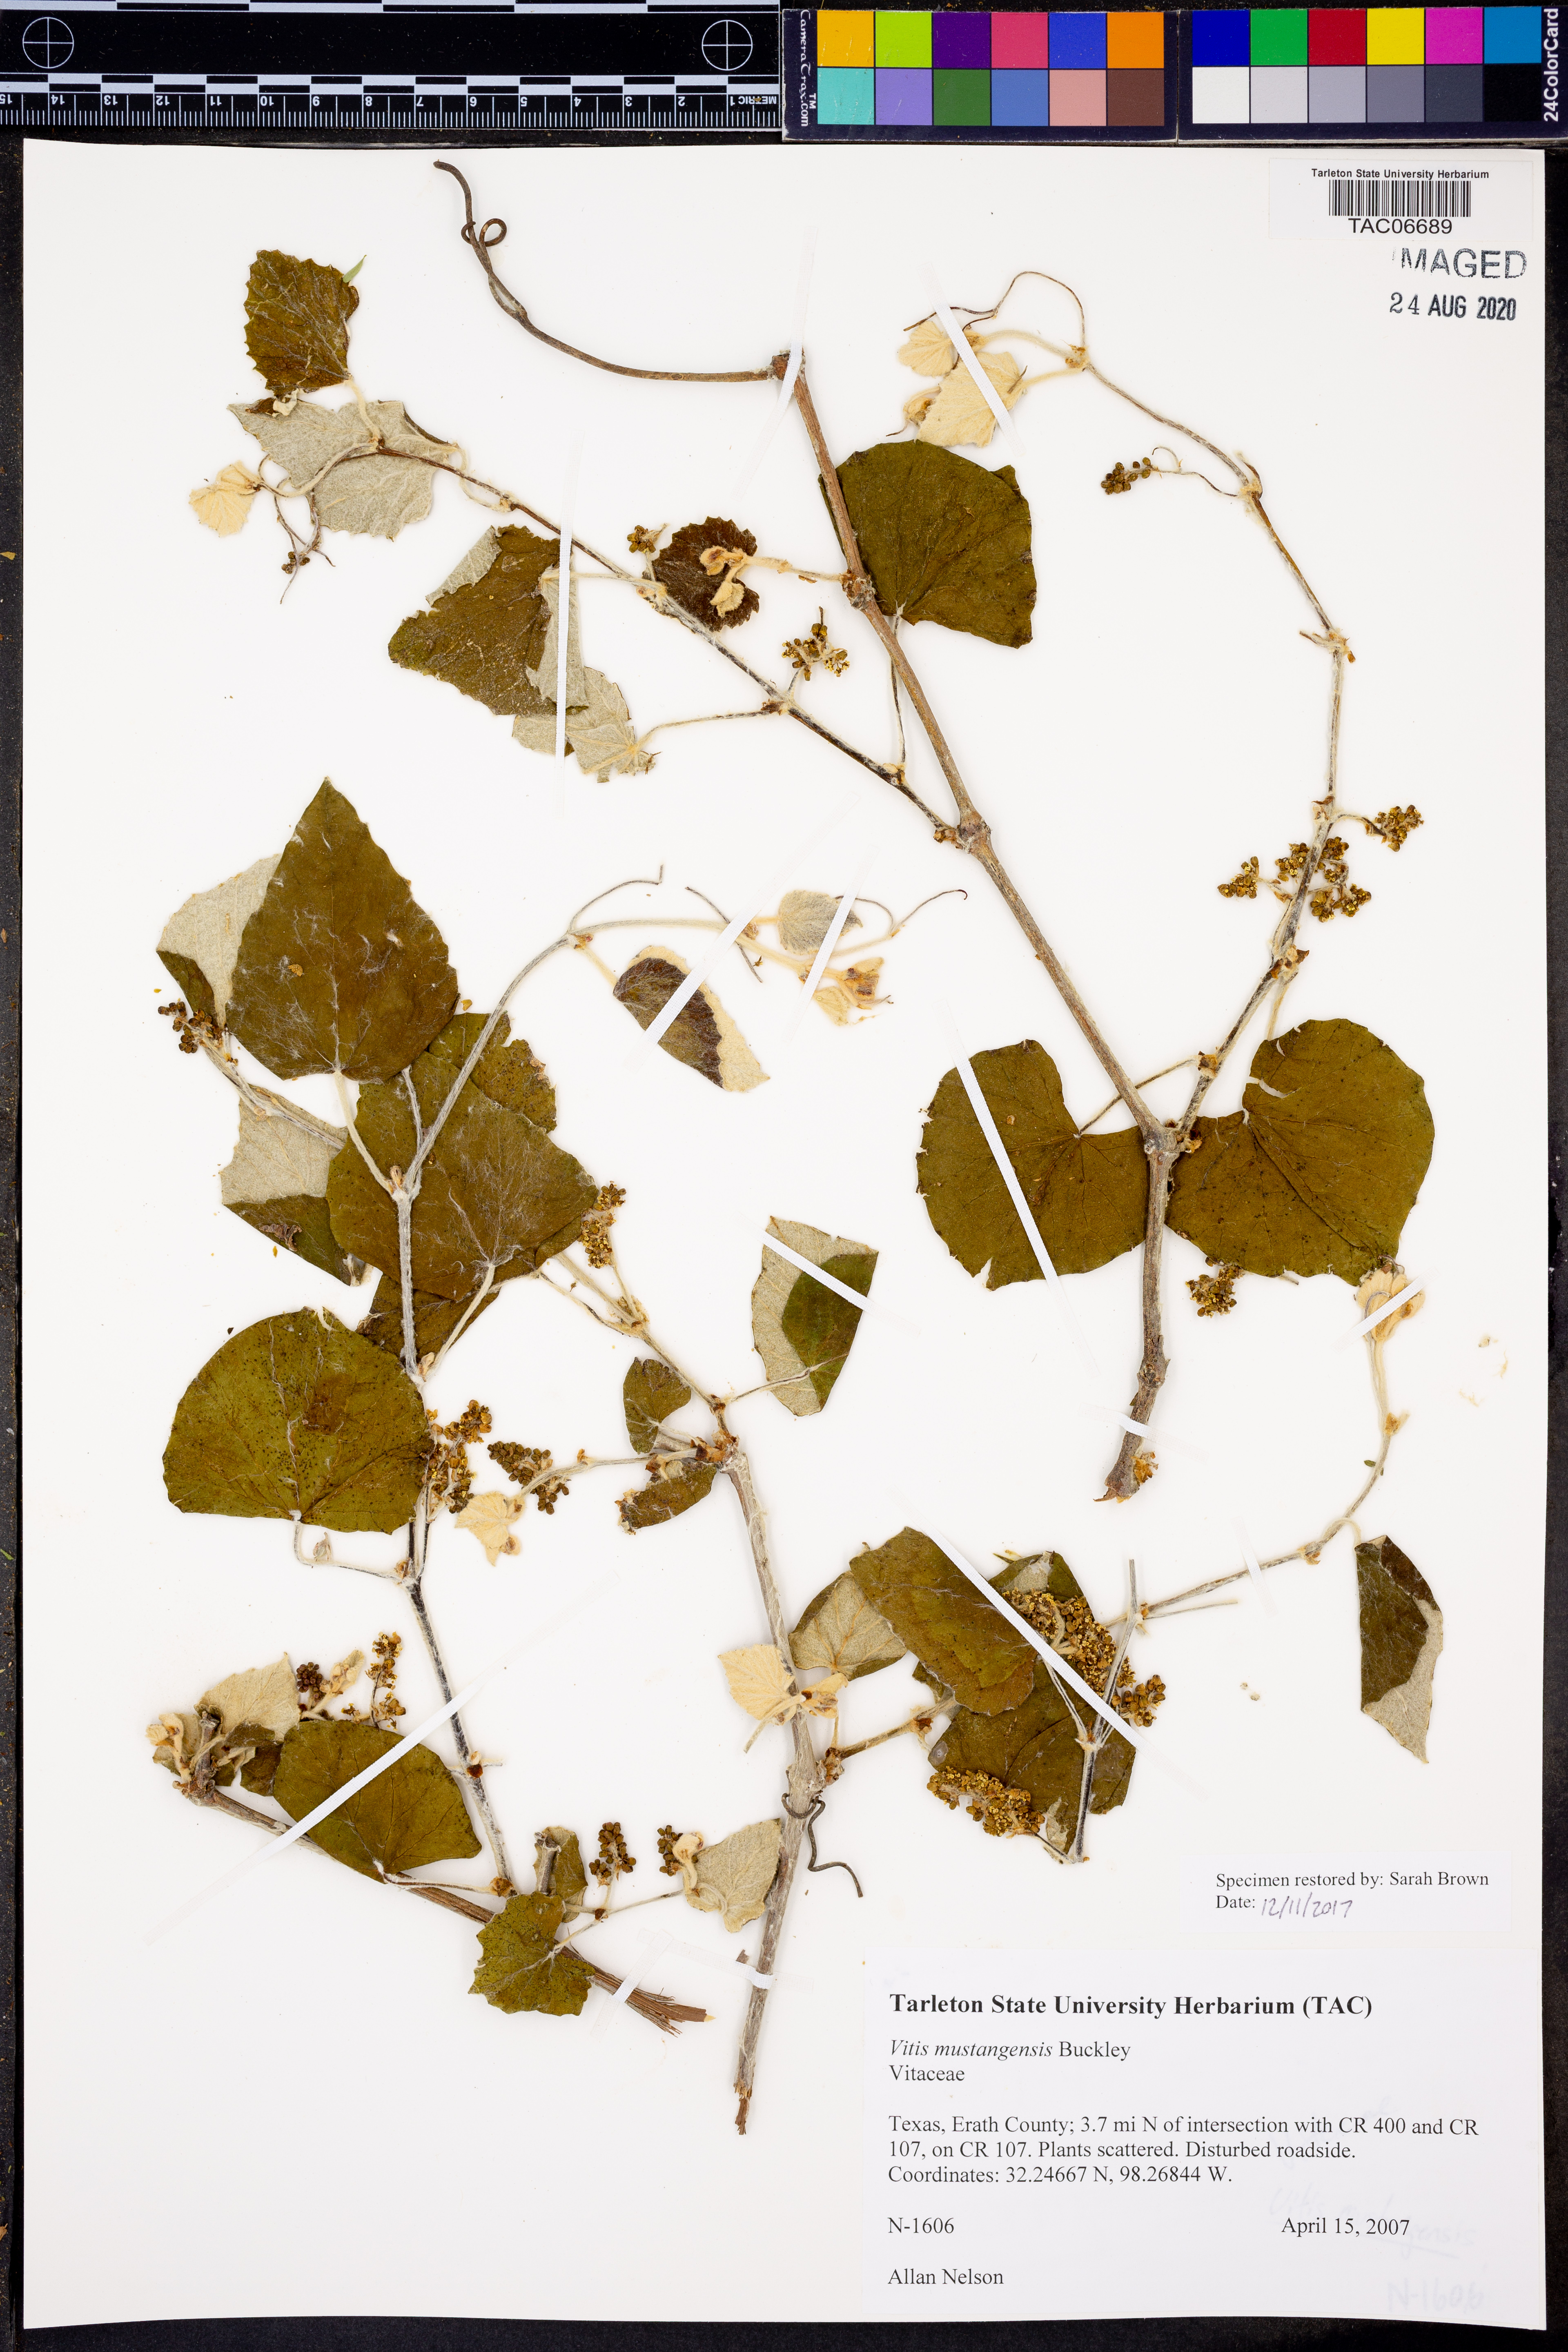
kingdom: Plantae
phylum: Tracheophyta
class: Magnoliopsida
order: Vitales
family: Vitaceae
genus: Vitis
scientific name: Vitis mustangensis
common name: Mustang grape
